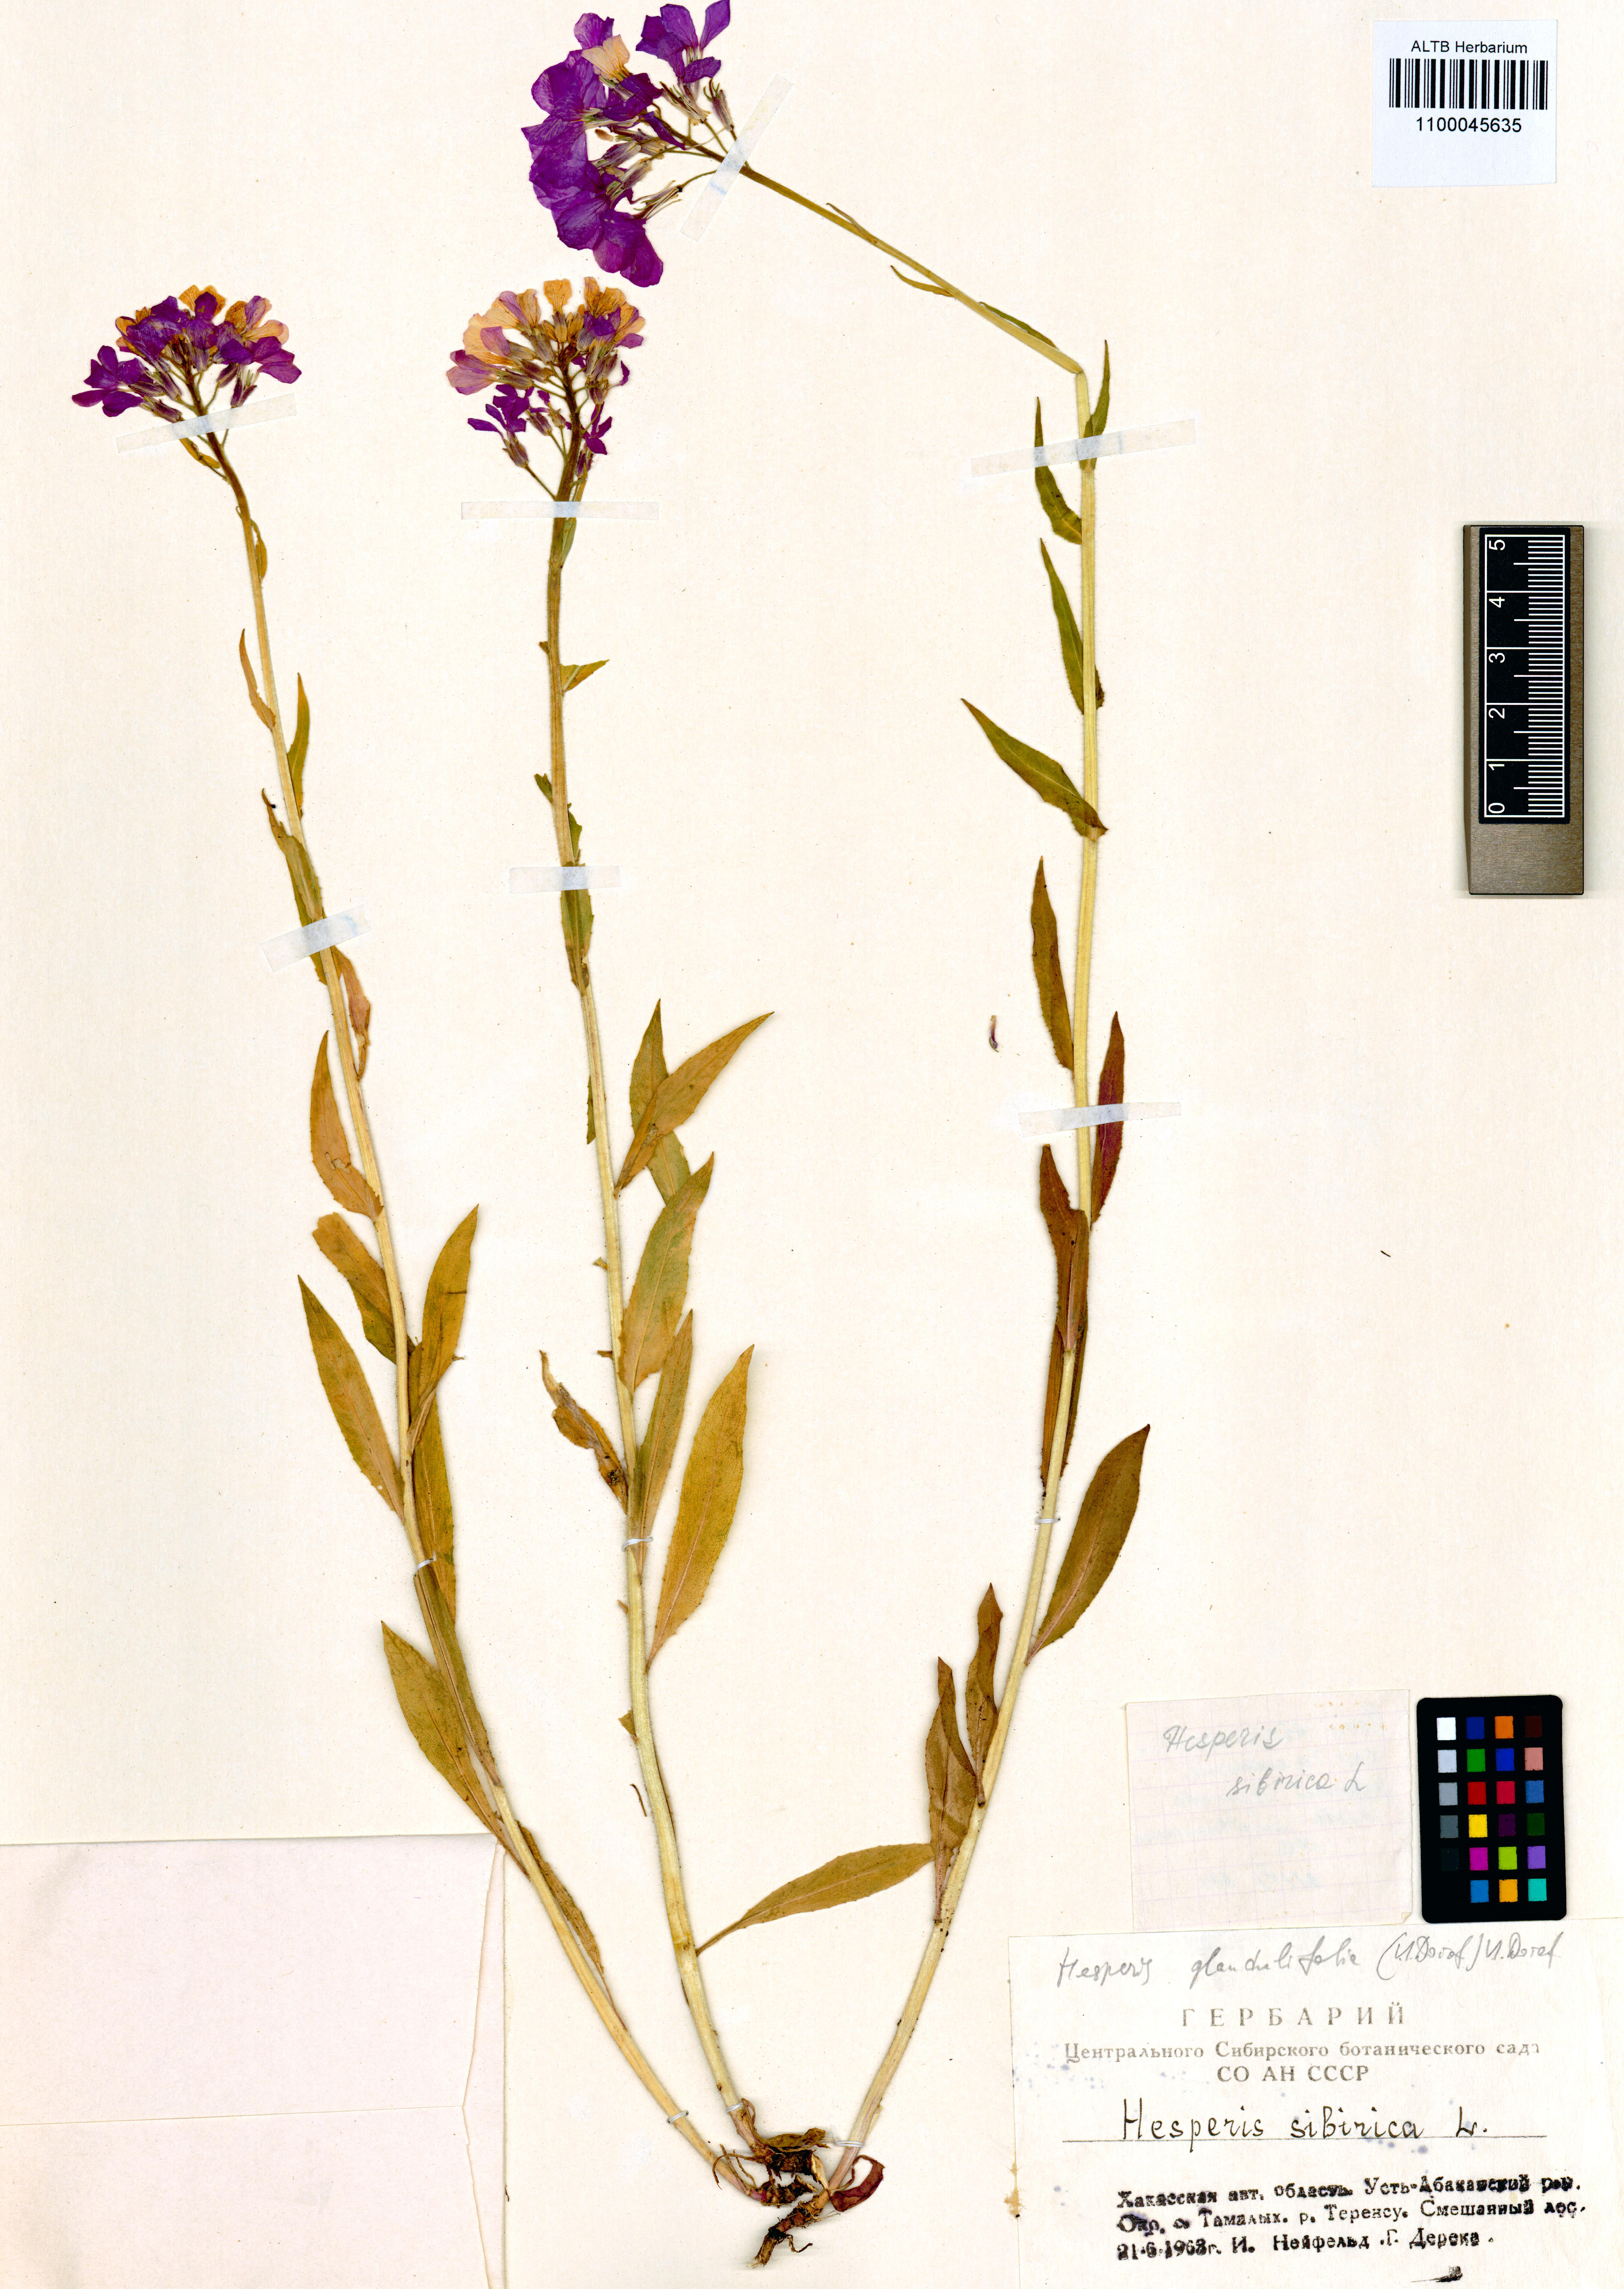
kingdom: Plantae
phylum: Tracheophyta
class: Magnoliopsida
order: Brassicales
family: Brassicaceae
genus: Hesperis
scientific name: Hesperis sibirica
